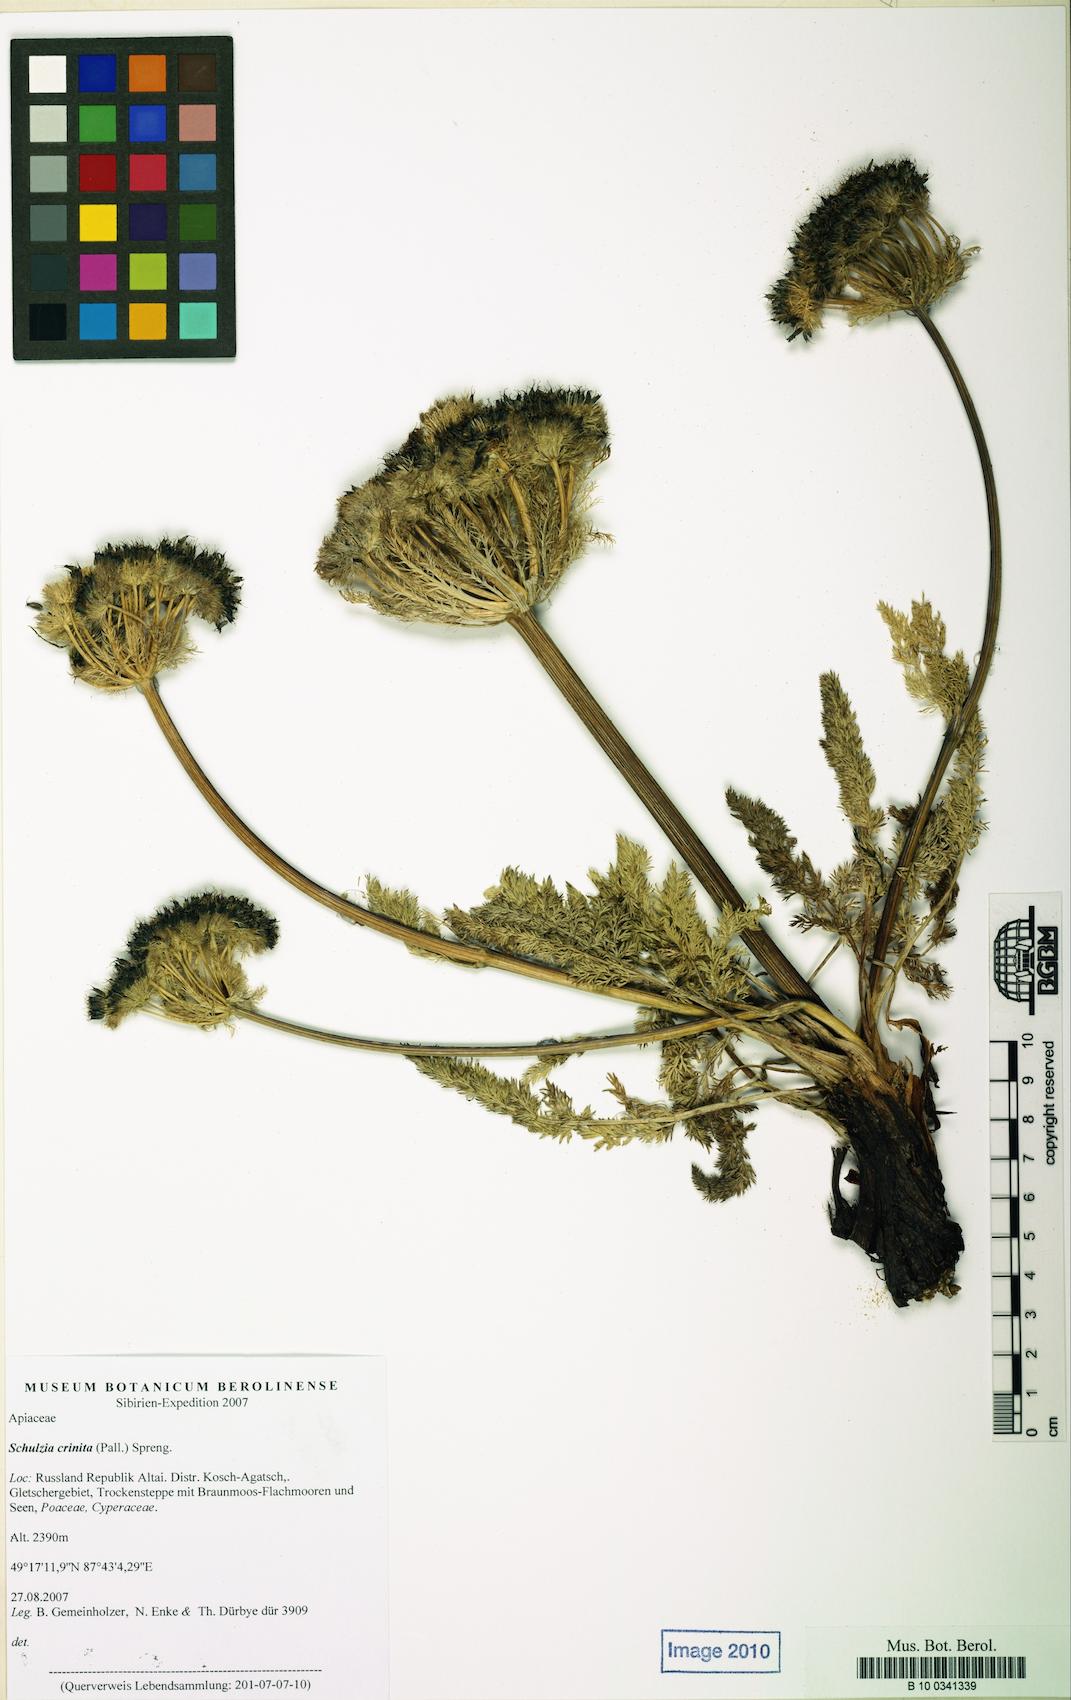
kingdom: Plantae
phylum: Tracheophyta
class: Magnoliopsida
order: Apiales
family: Apiaceae
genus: Schulzia
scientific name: Schulzia crinita
